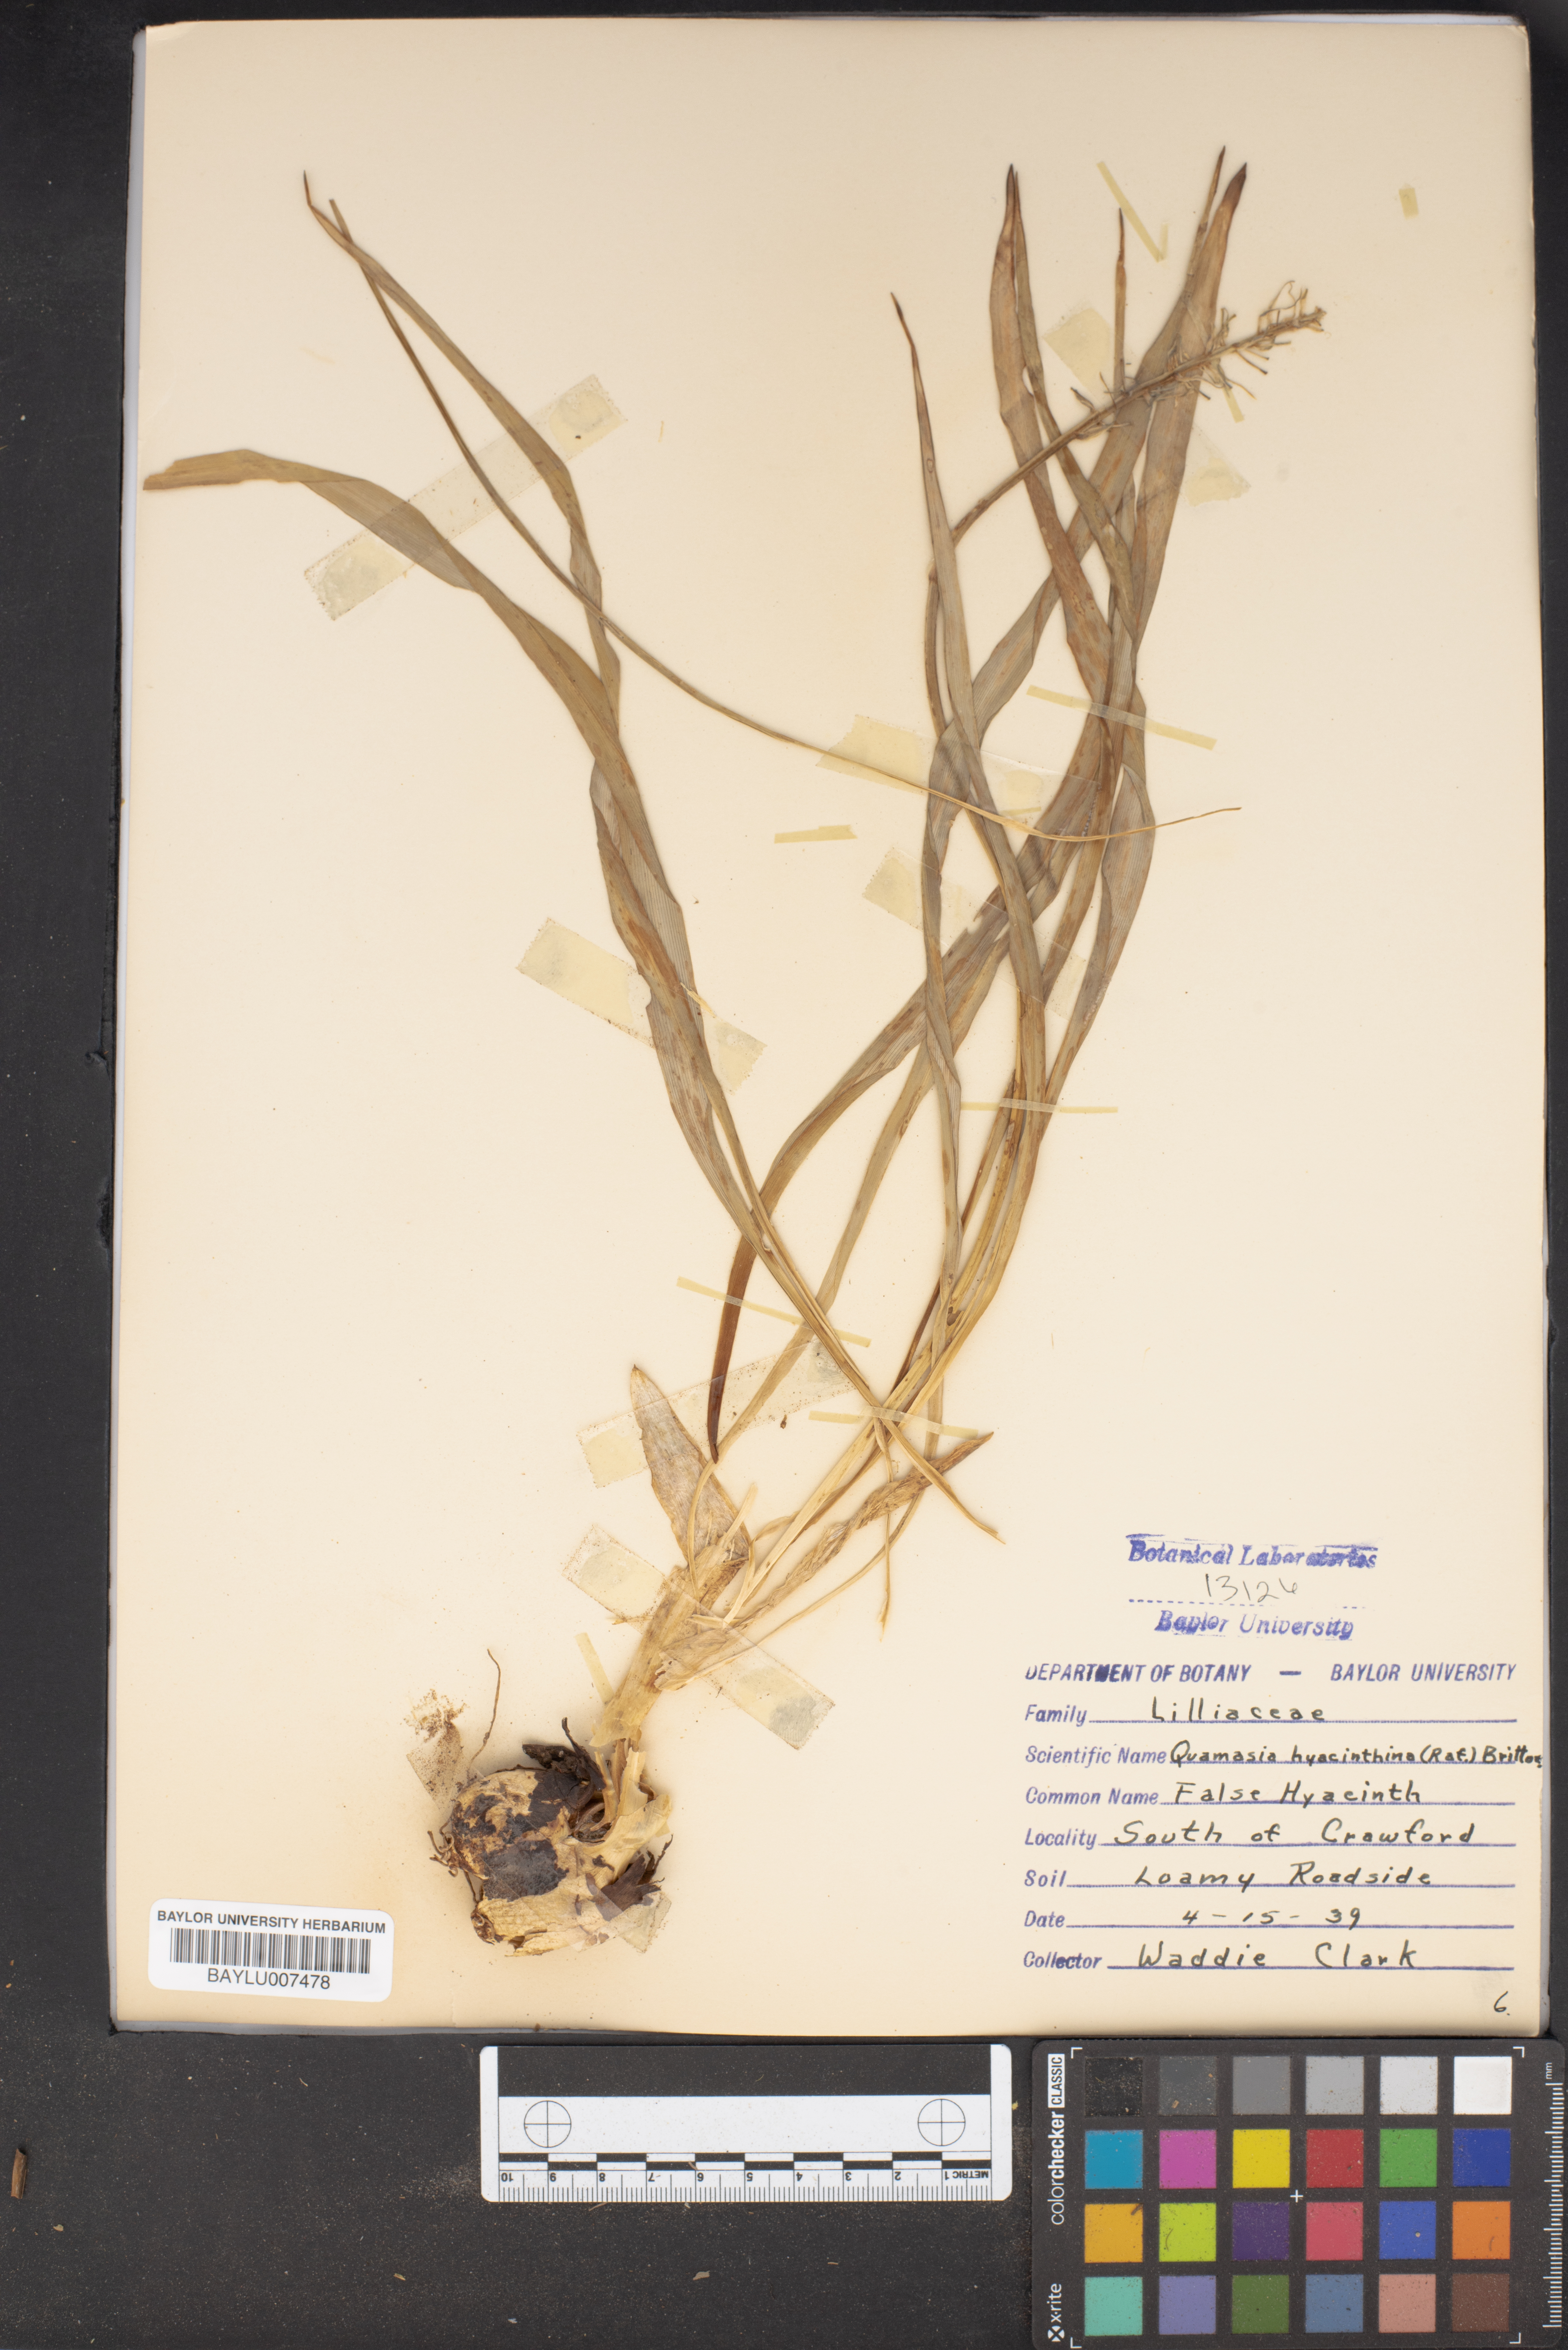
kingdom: Plantae
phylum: Tracheophyta
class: Liliopsida
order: Asparagales
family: Asparagaceae
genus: Camassia
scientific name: Camassia scilloides
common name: Wild hyacinth
